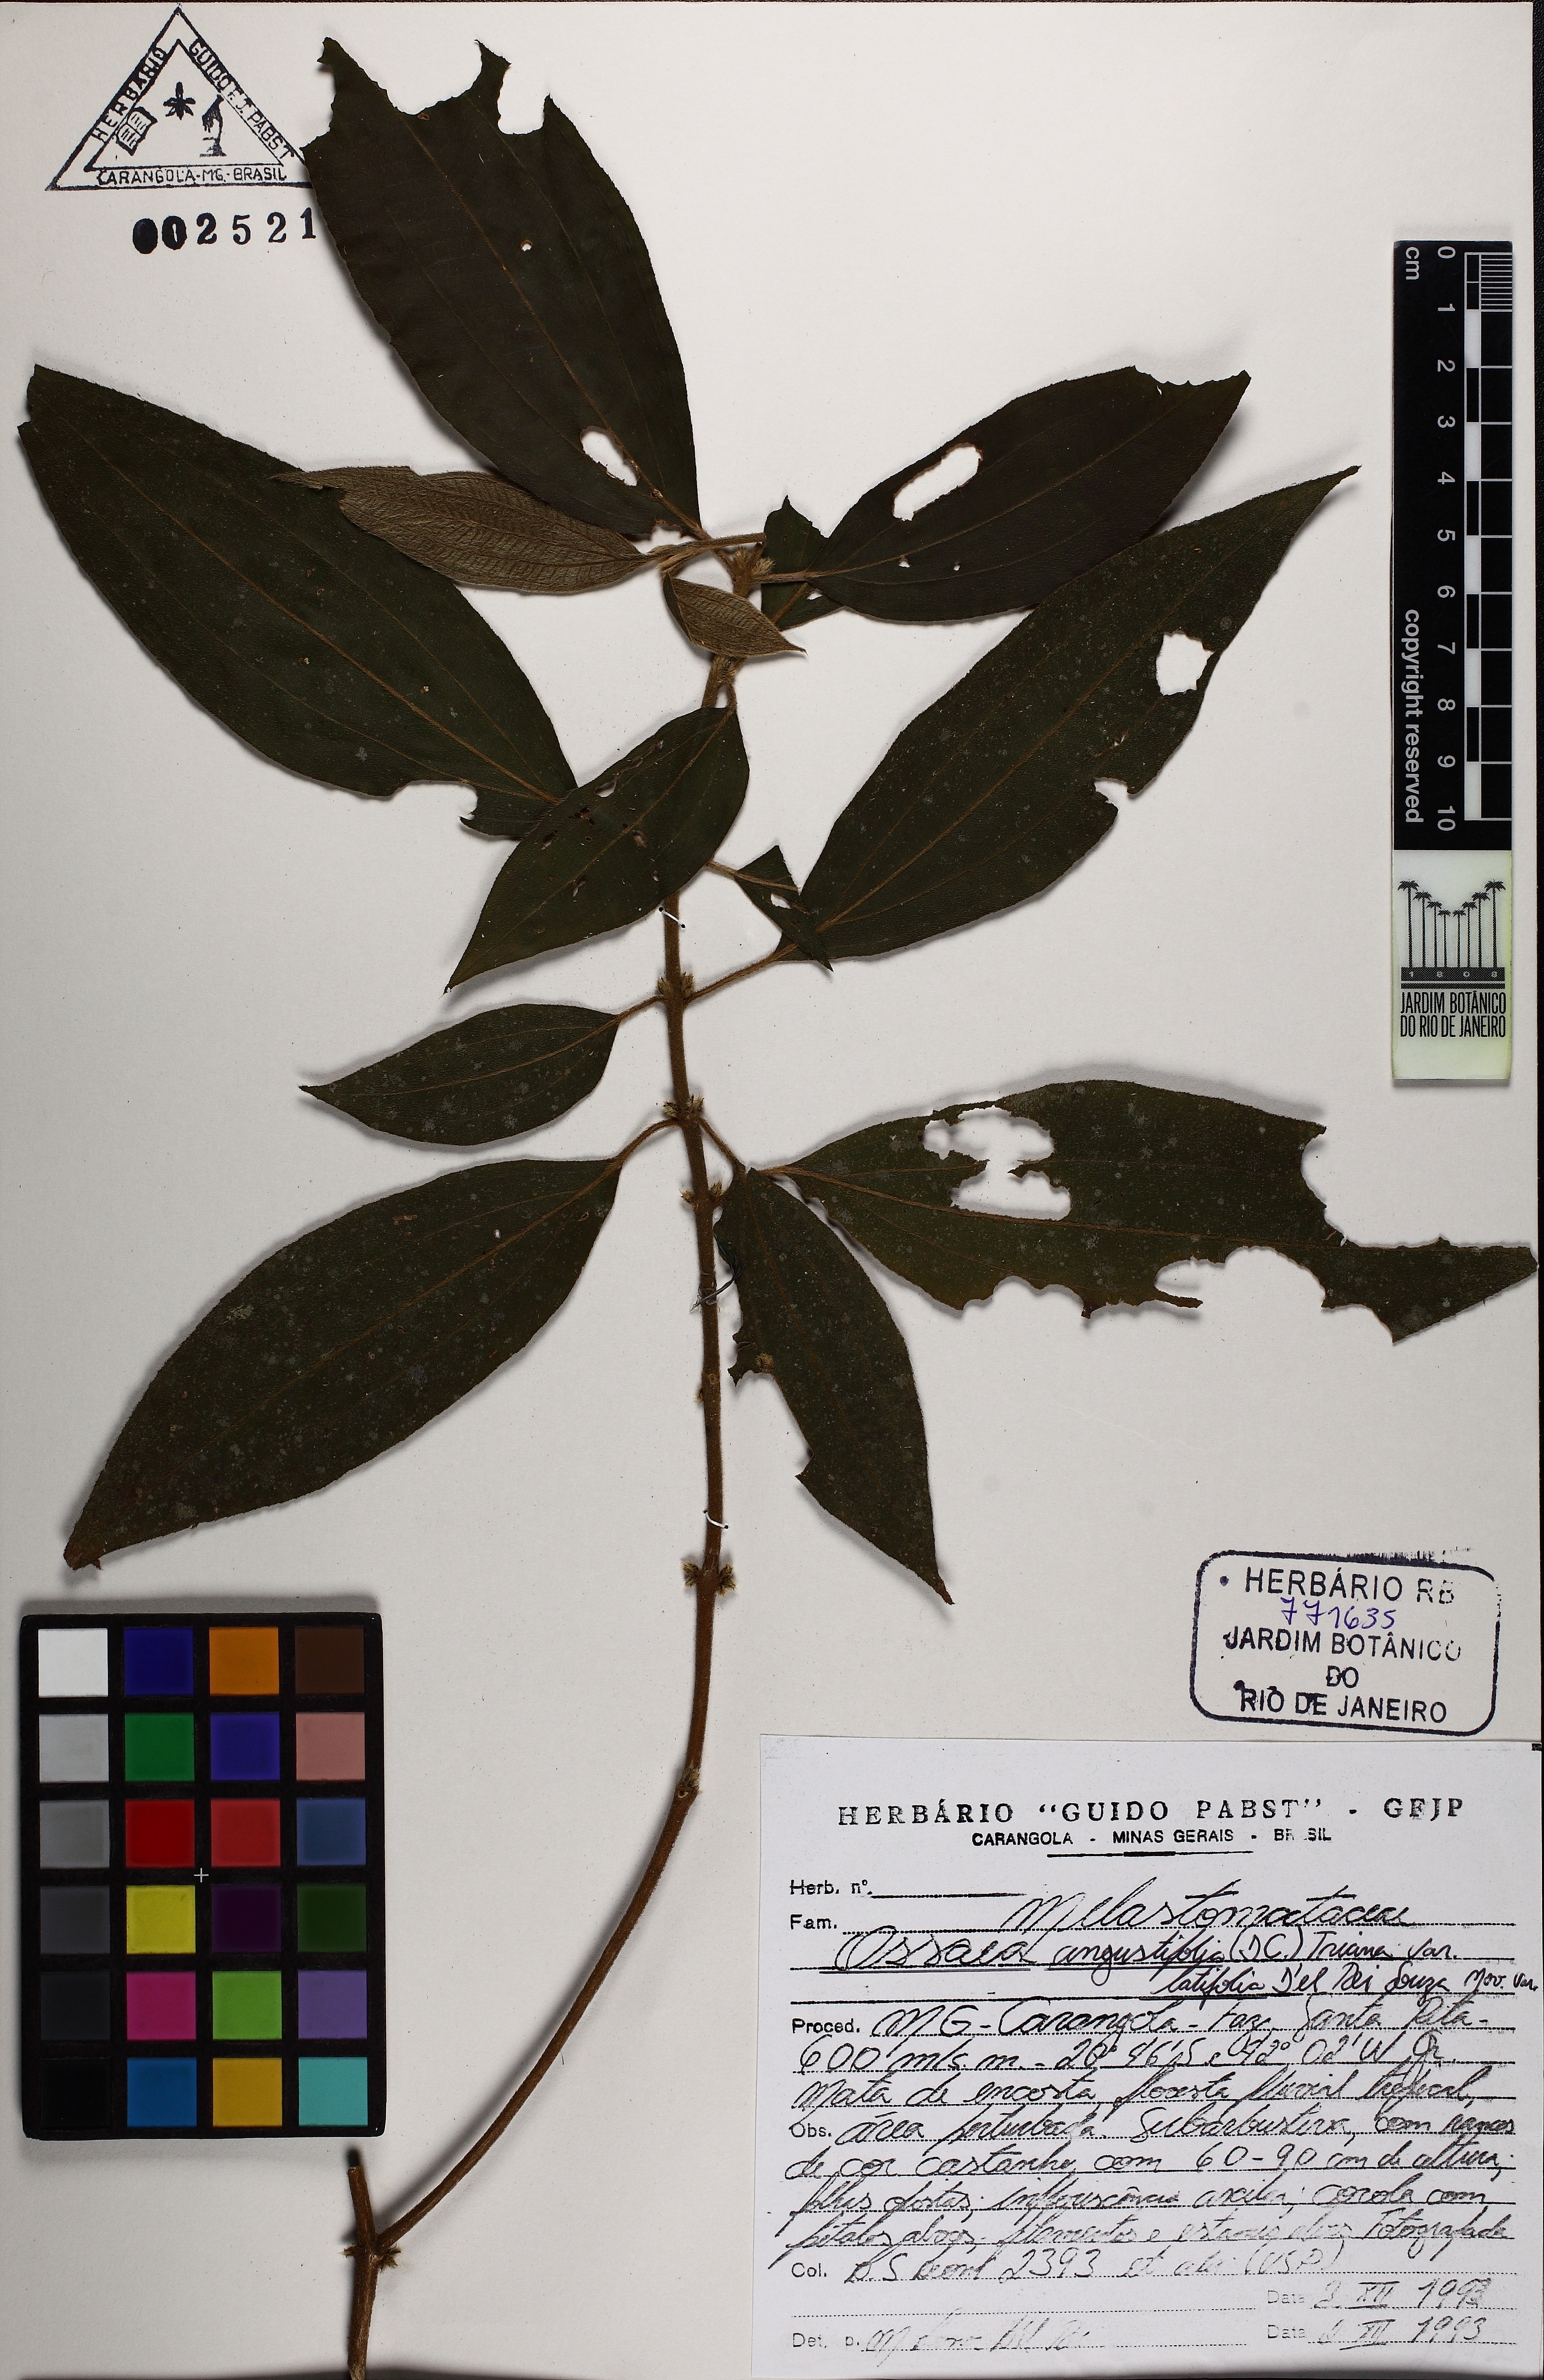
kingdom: Plantae
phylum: Tracheophyta
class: Magnoliopsida
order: Myrtales
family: Melastomataceae
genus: Miconia
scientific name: Miconia corcovadensis
